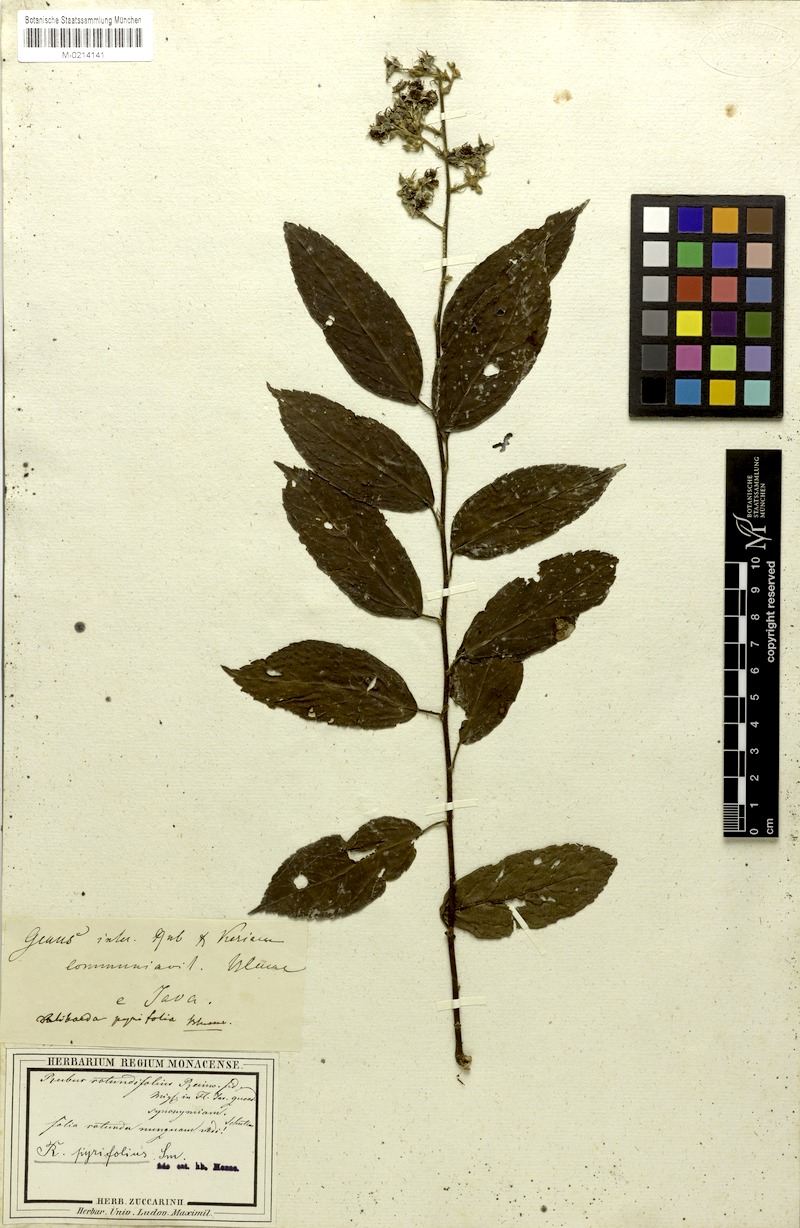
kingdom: Plantae
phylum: Tracheophyta
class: Magnoliopsida
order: Rosales
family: Rosaceae
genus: Rubus
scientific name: Rubus moluccanus
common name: Wild raspberry
